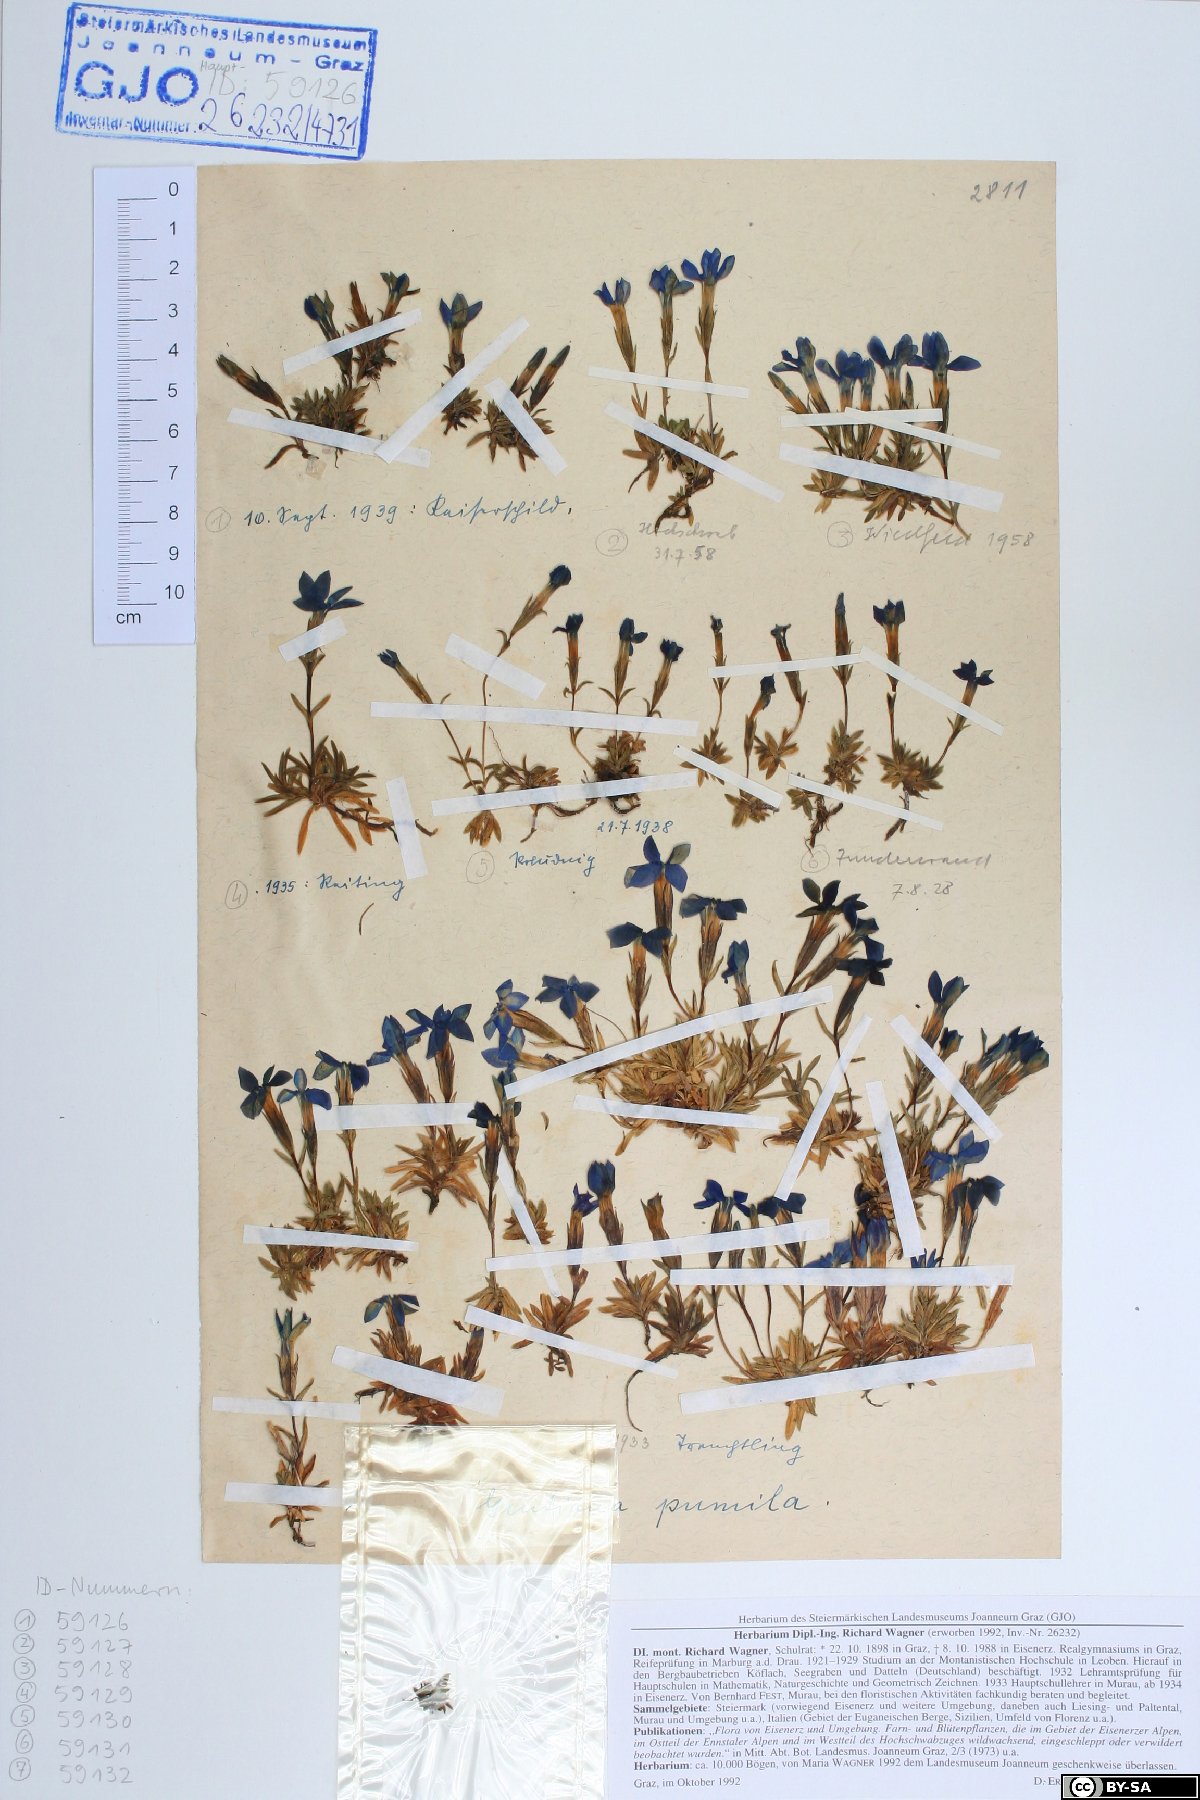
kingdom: Plantae
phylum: Tracheophyta
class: Magnoliopsida
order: Gentianales
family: Gentianaceae
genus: Gentiana
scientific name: Gentiana pumila
